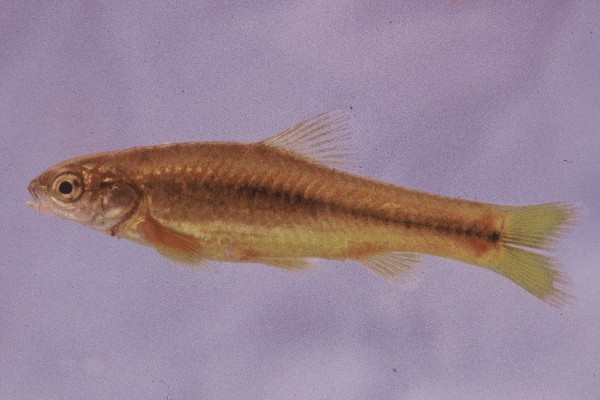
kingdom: Animalia
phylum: Chordata
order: Cypriniformes
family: Cyprinidae
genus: Enteromius
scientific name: Enteromius anoplus
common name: Chubbyhead barb
